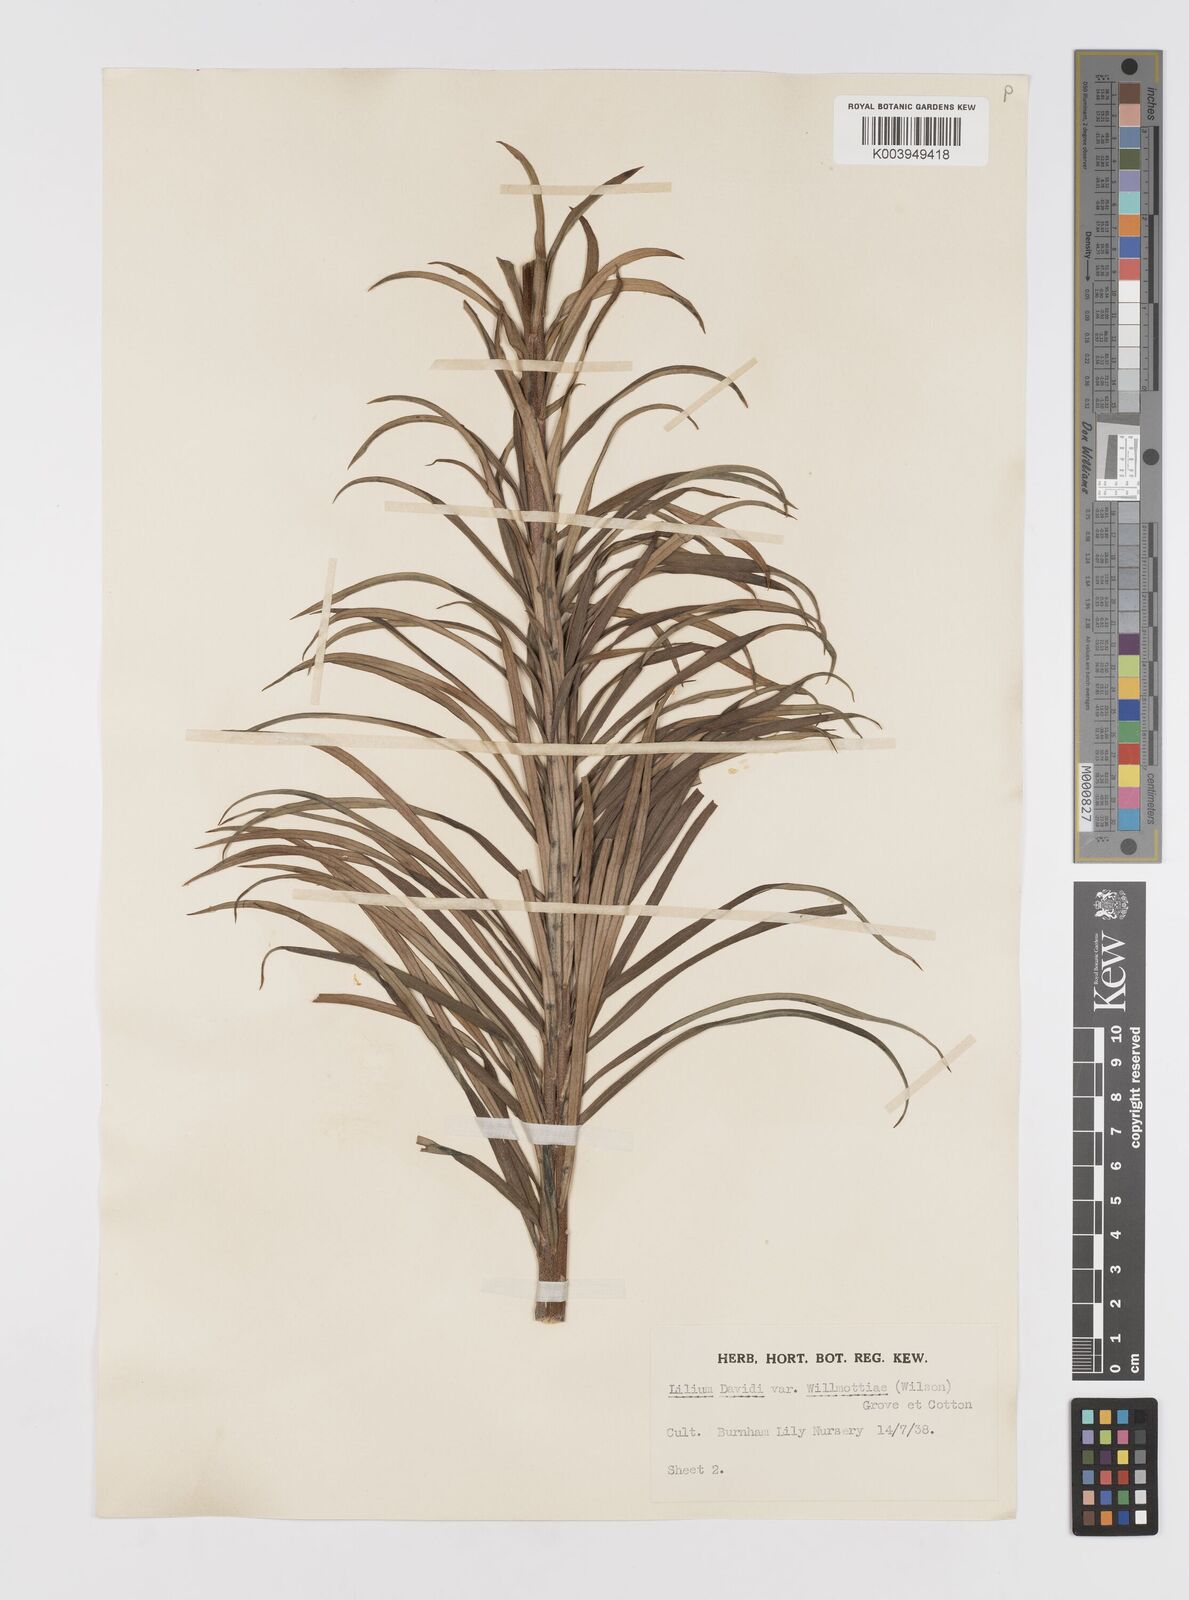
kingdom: Plantae
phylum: Tracheophyta
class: Liliopsida
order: Liliales
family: Liliaceae
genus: Lilium
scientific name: Lilium davidii
